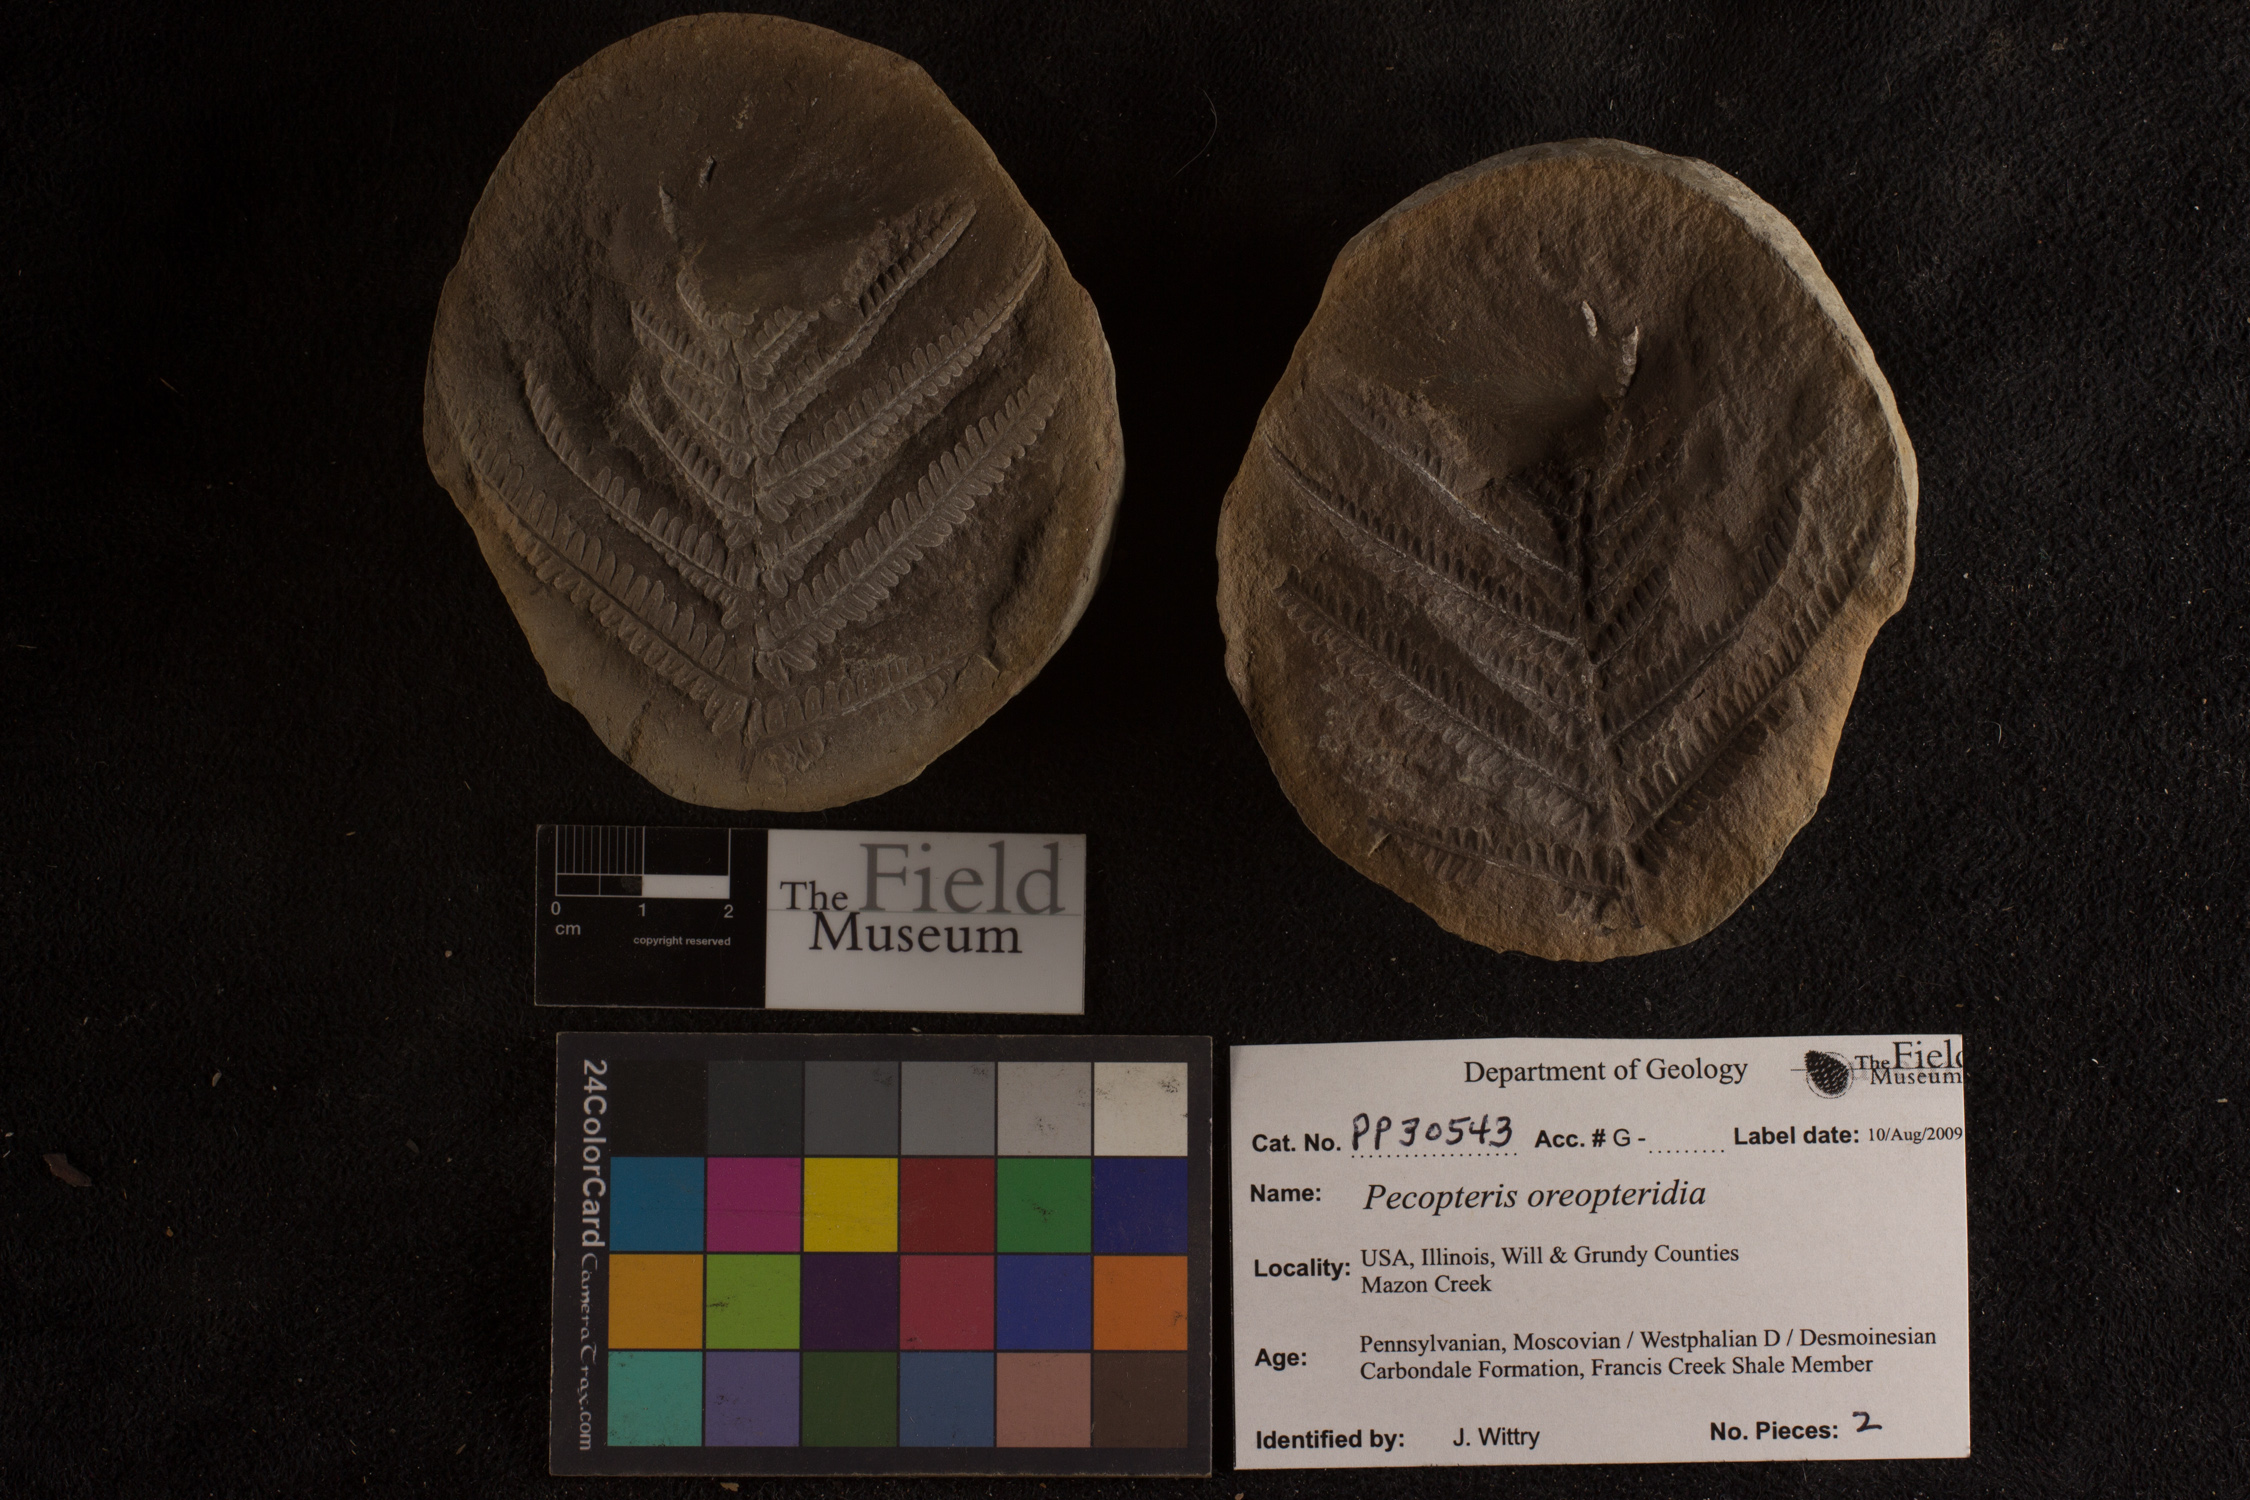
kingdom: Plantae
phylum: Tracheophyta
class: Polypodiopsida
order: Marattiales
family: Asterothecaceae
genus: Pecopteris
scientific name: Pecopteris
